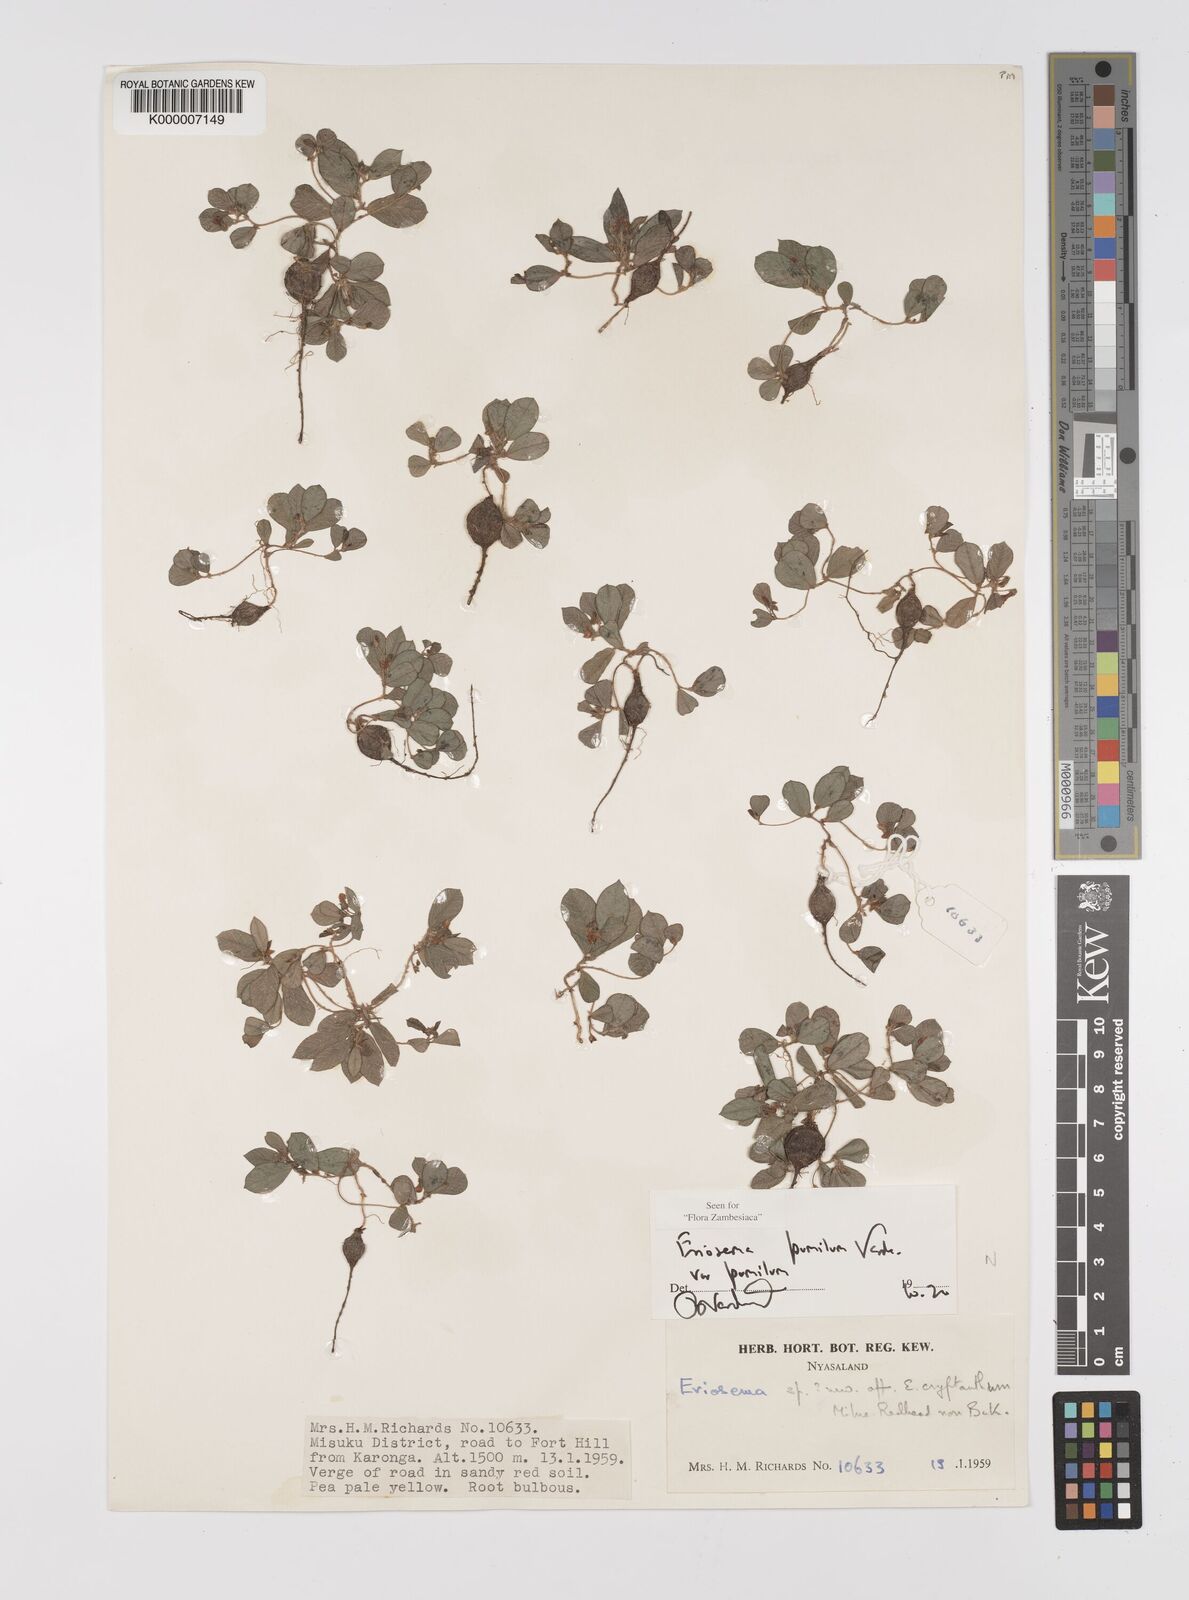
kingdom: Plantae
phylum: Tracheophyta
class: Magnoliopsida
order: Fabales
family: Fabaceae
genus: Eriosema
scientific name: Eriosema pumilum
